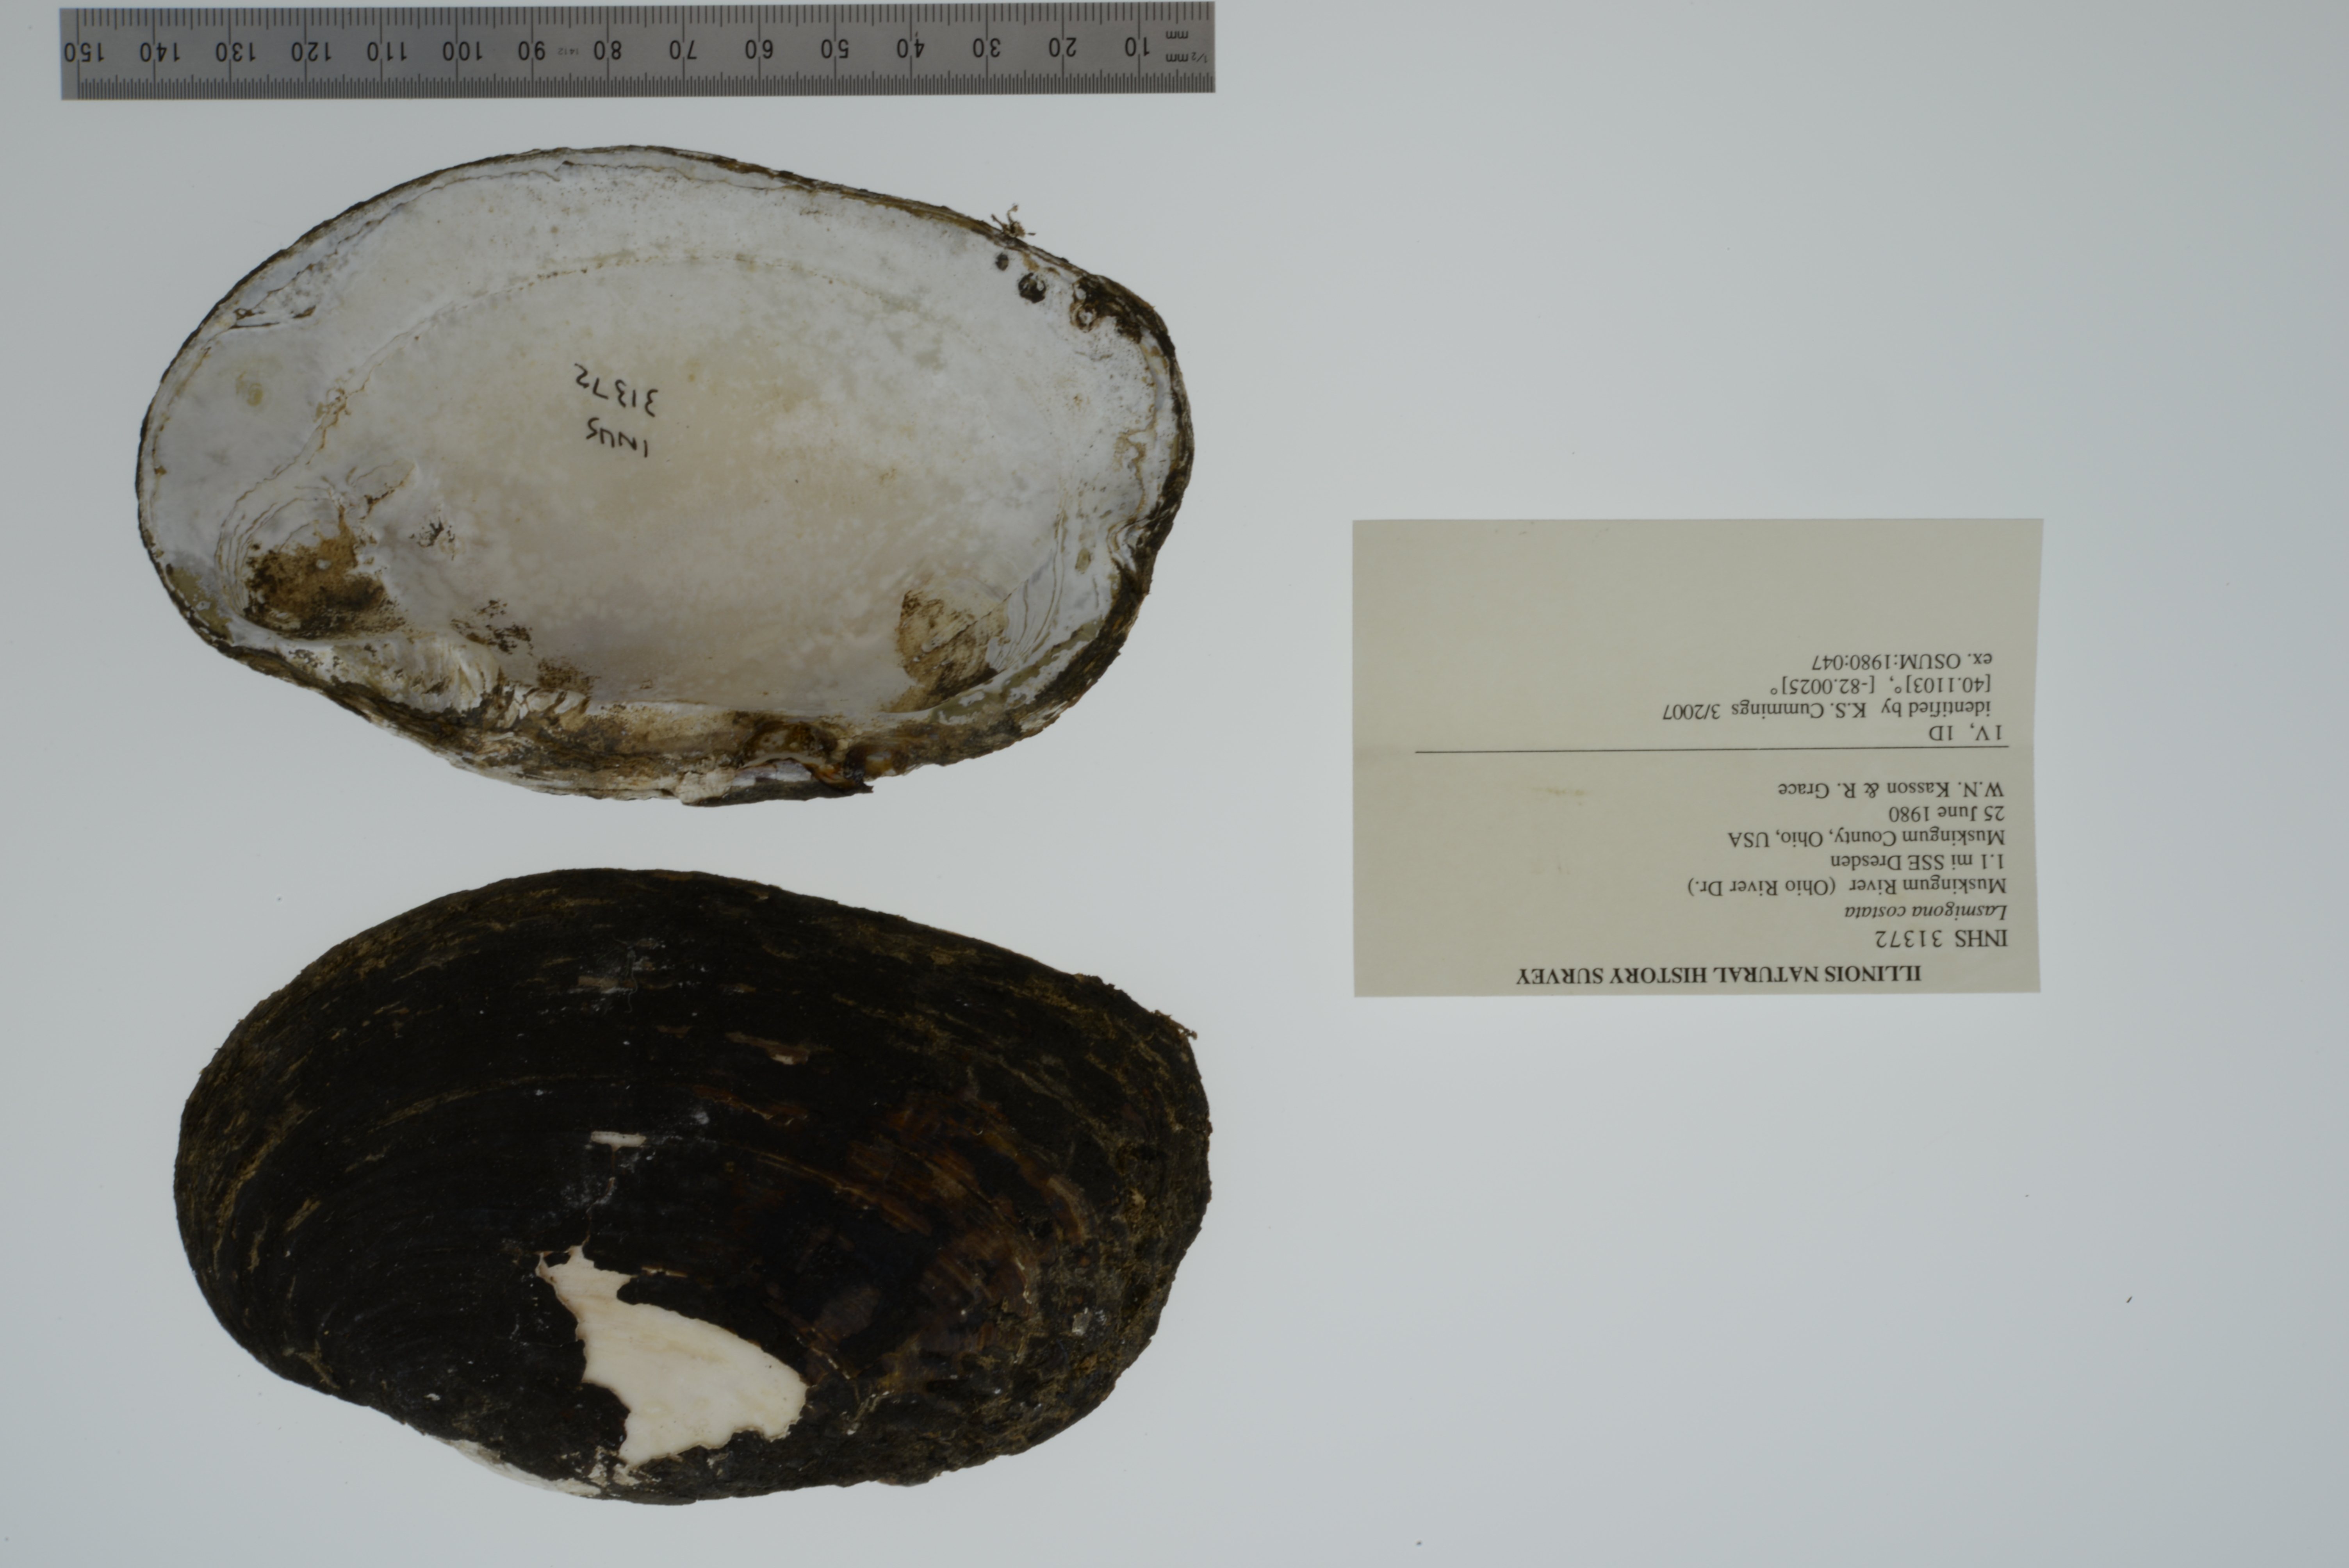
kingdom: Animalia
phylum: Mollusca
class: Bivalvia
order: Unionida
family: Unionidae
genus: Lasmigona
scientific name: Lasmigona costata
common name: Flutedshell
